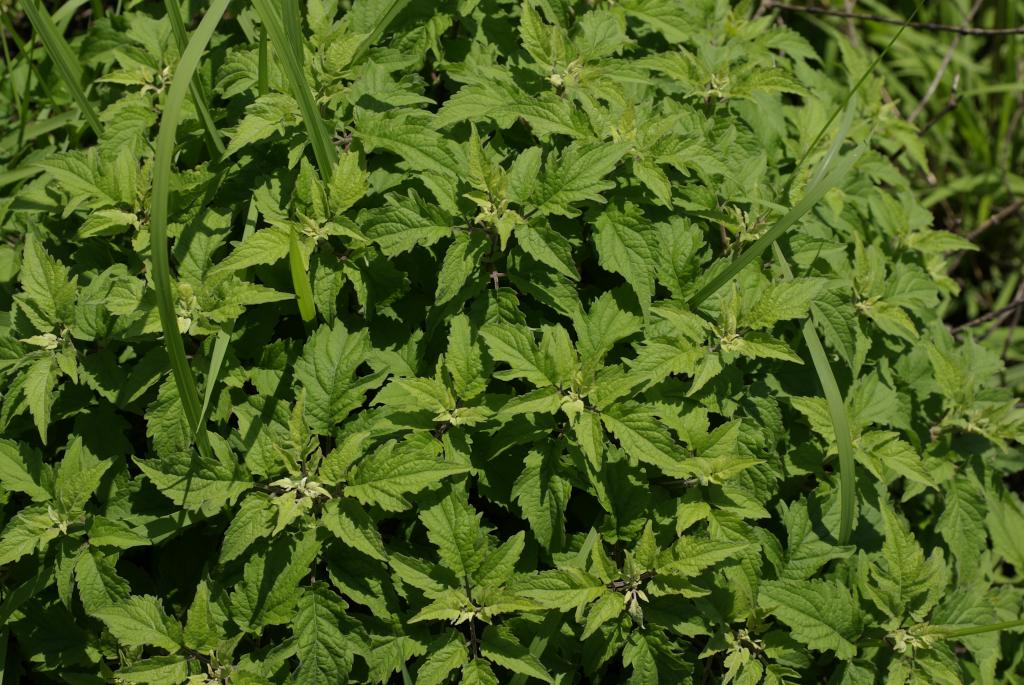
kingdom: Plantae
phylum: Tracheophyta
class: Magnoliopsida
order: Asterales
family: Asteraceae
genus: Eupatorium
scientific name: Eupatorium formosanum
